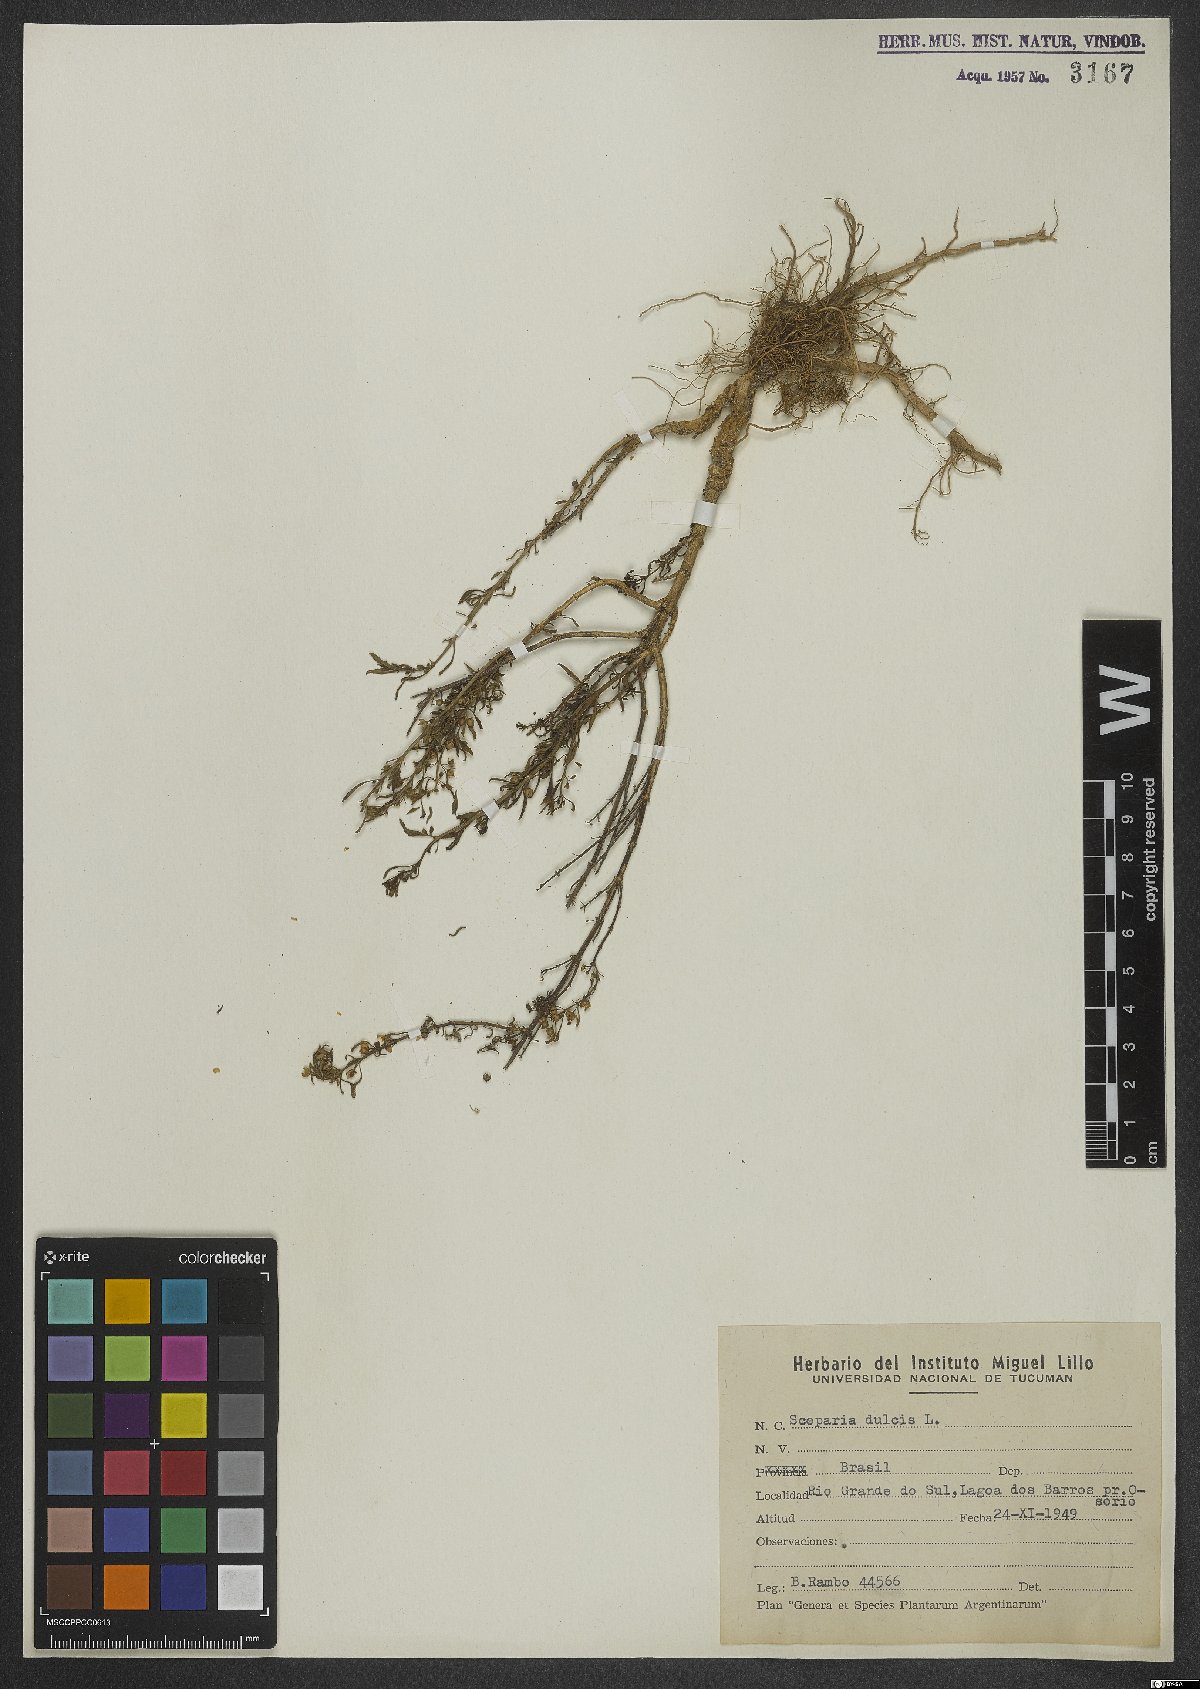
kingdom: Plantae
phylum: Tracheophyta
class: Magnoliopsida
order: Lamiales
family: Plantaginaceae
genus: Scoparia
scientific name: Scoparia dulcis
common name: Scoparia-weed
